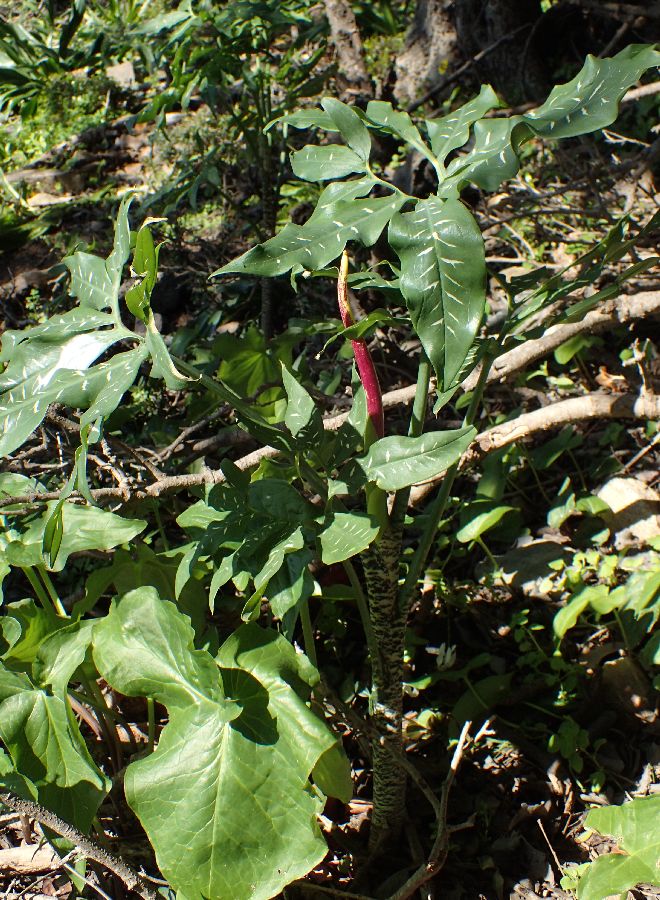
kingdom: Plantae
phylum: Tracheophyta
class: Liliopsida
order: Alismatales
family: Araceae
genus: Dracunculus
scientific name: Dracunculus vulgaris
